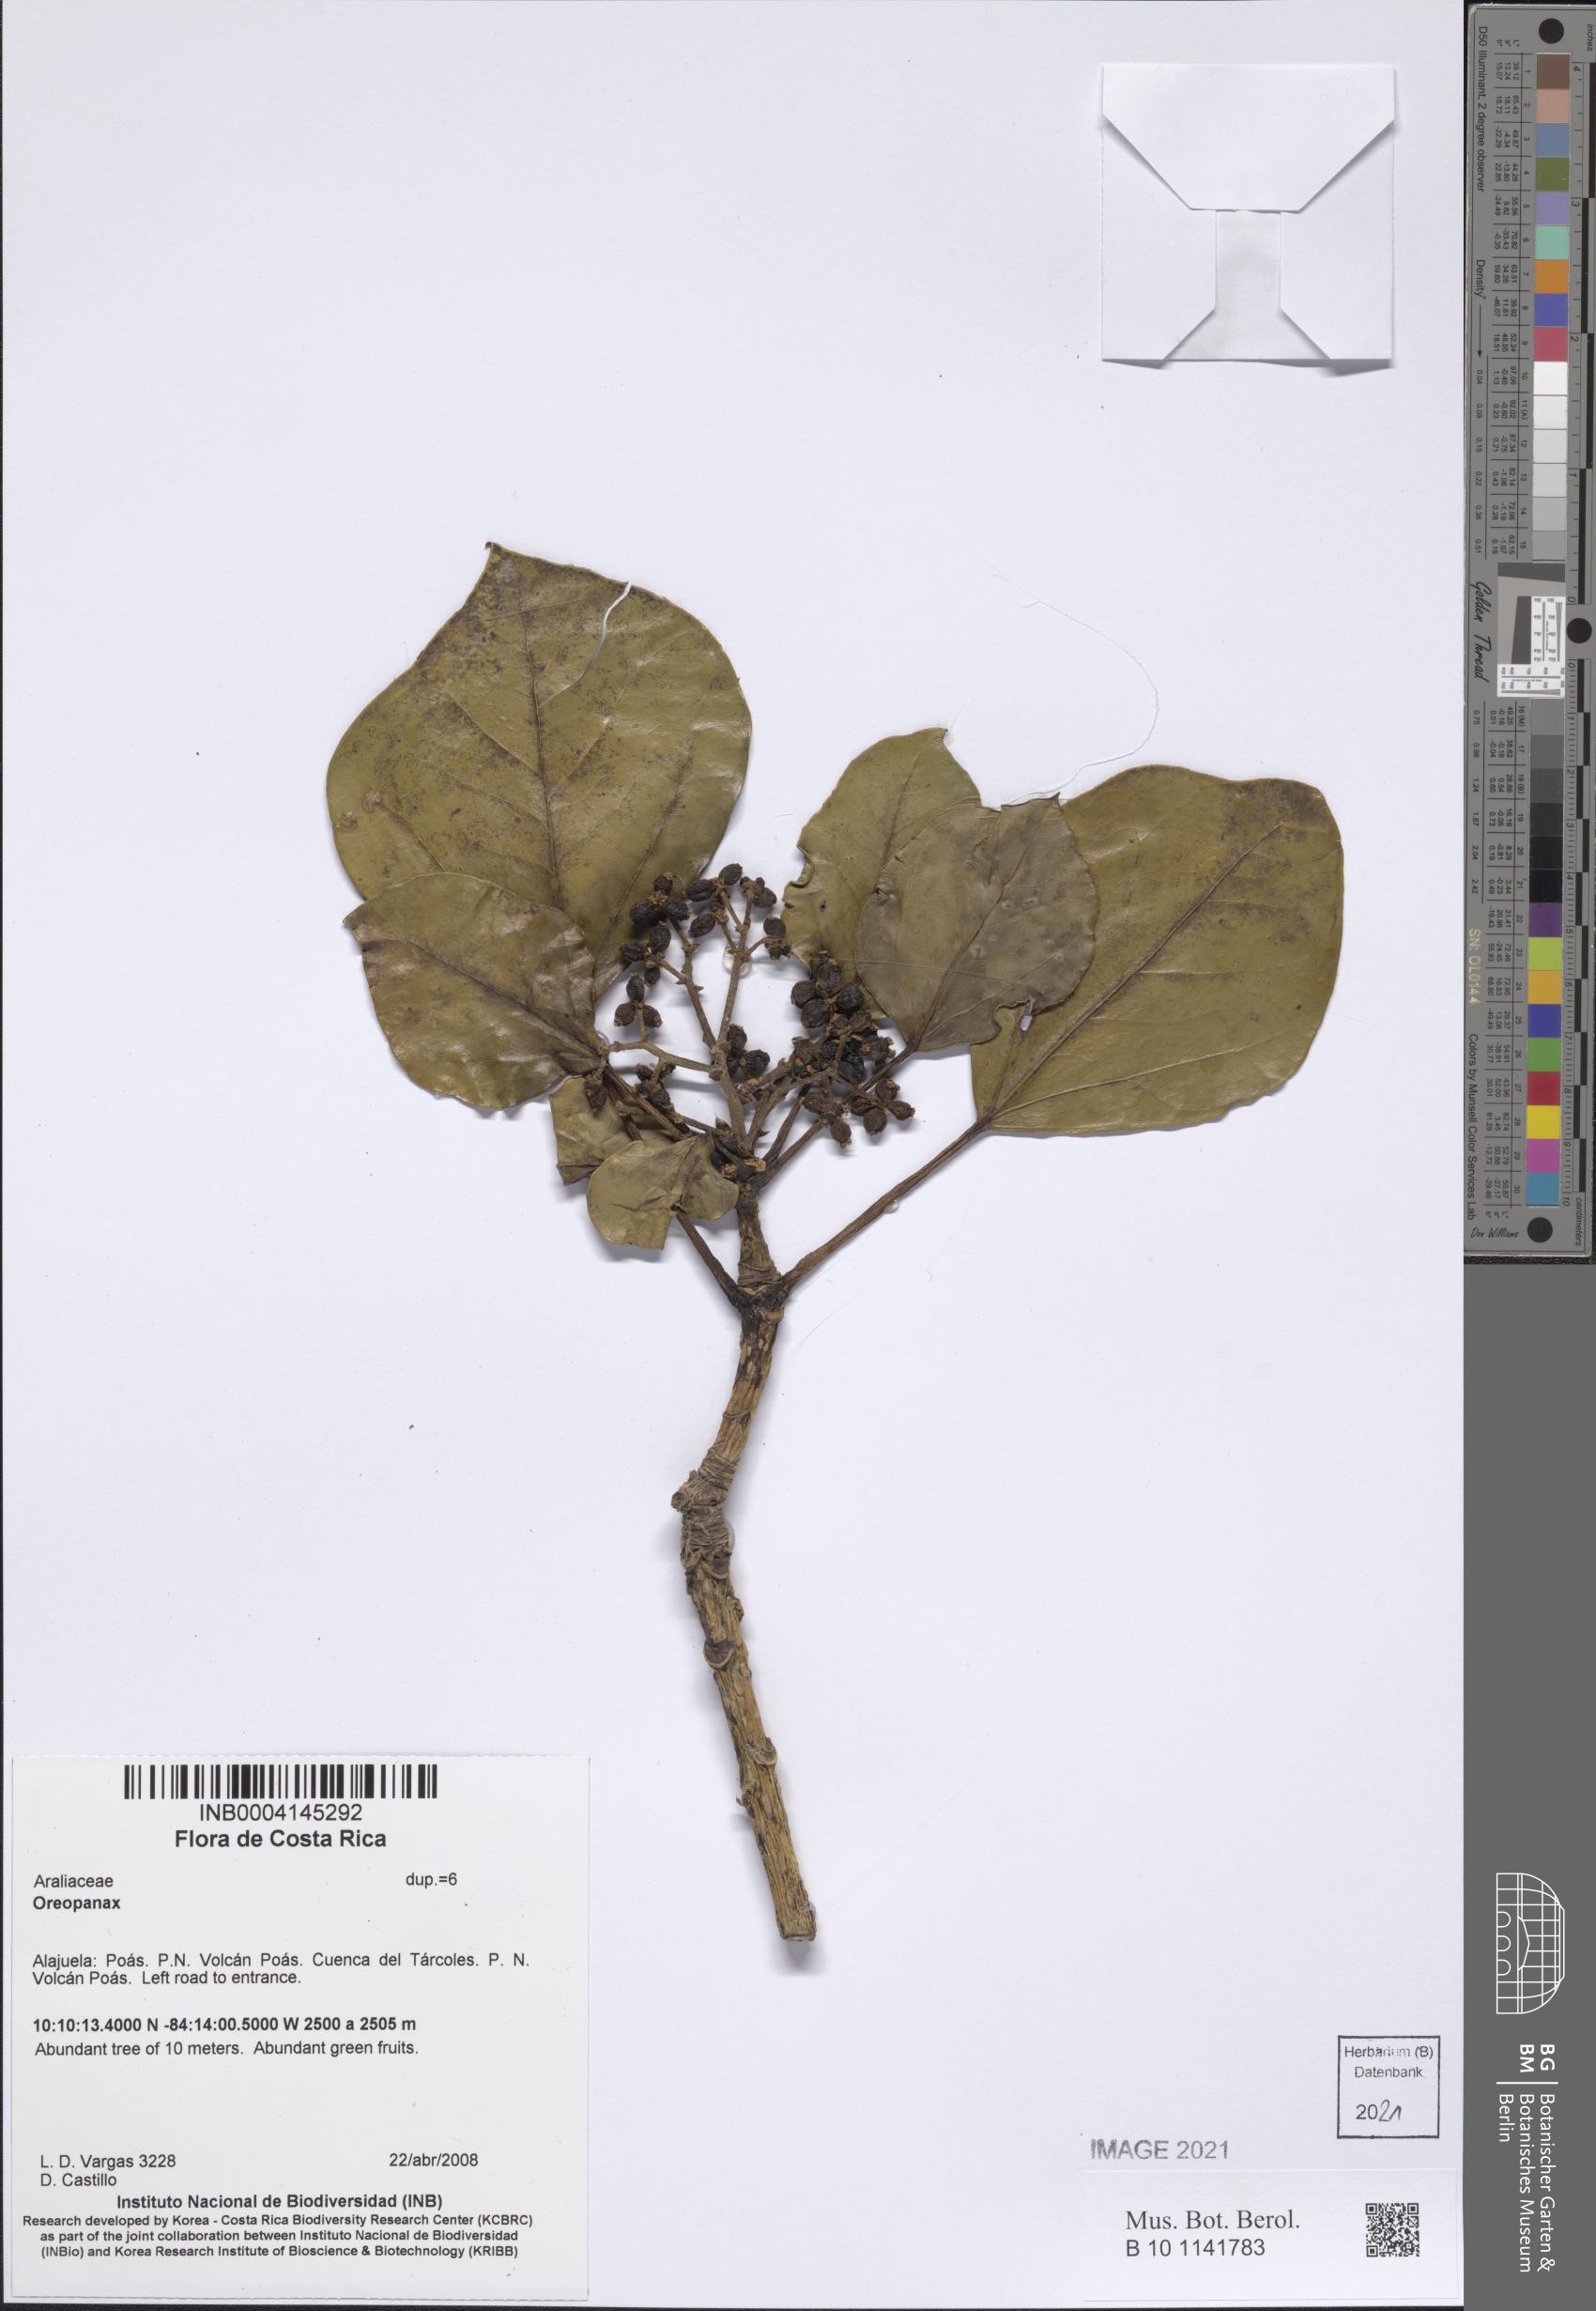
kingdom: Plantae
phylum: Tracheophyta
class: Magnoliopsida
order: Apiales
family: Araliaceae
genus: Oreopanax
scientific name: Oreopanax
